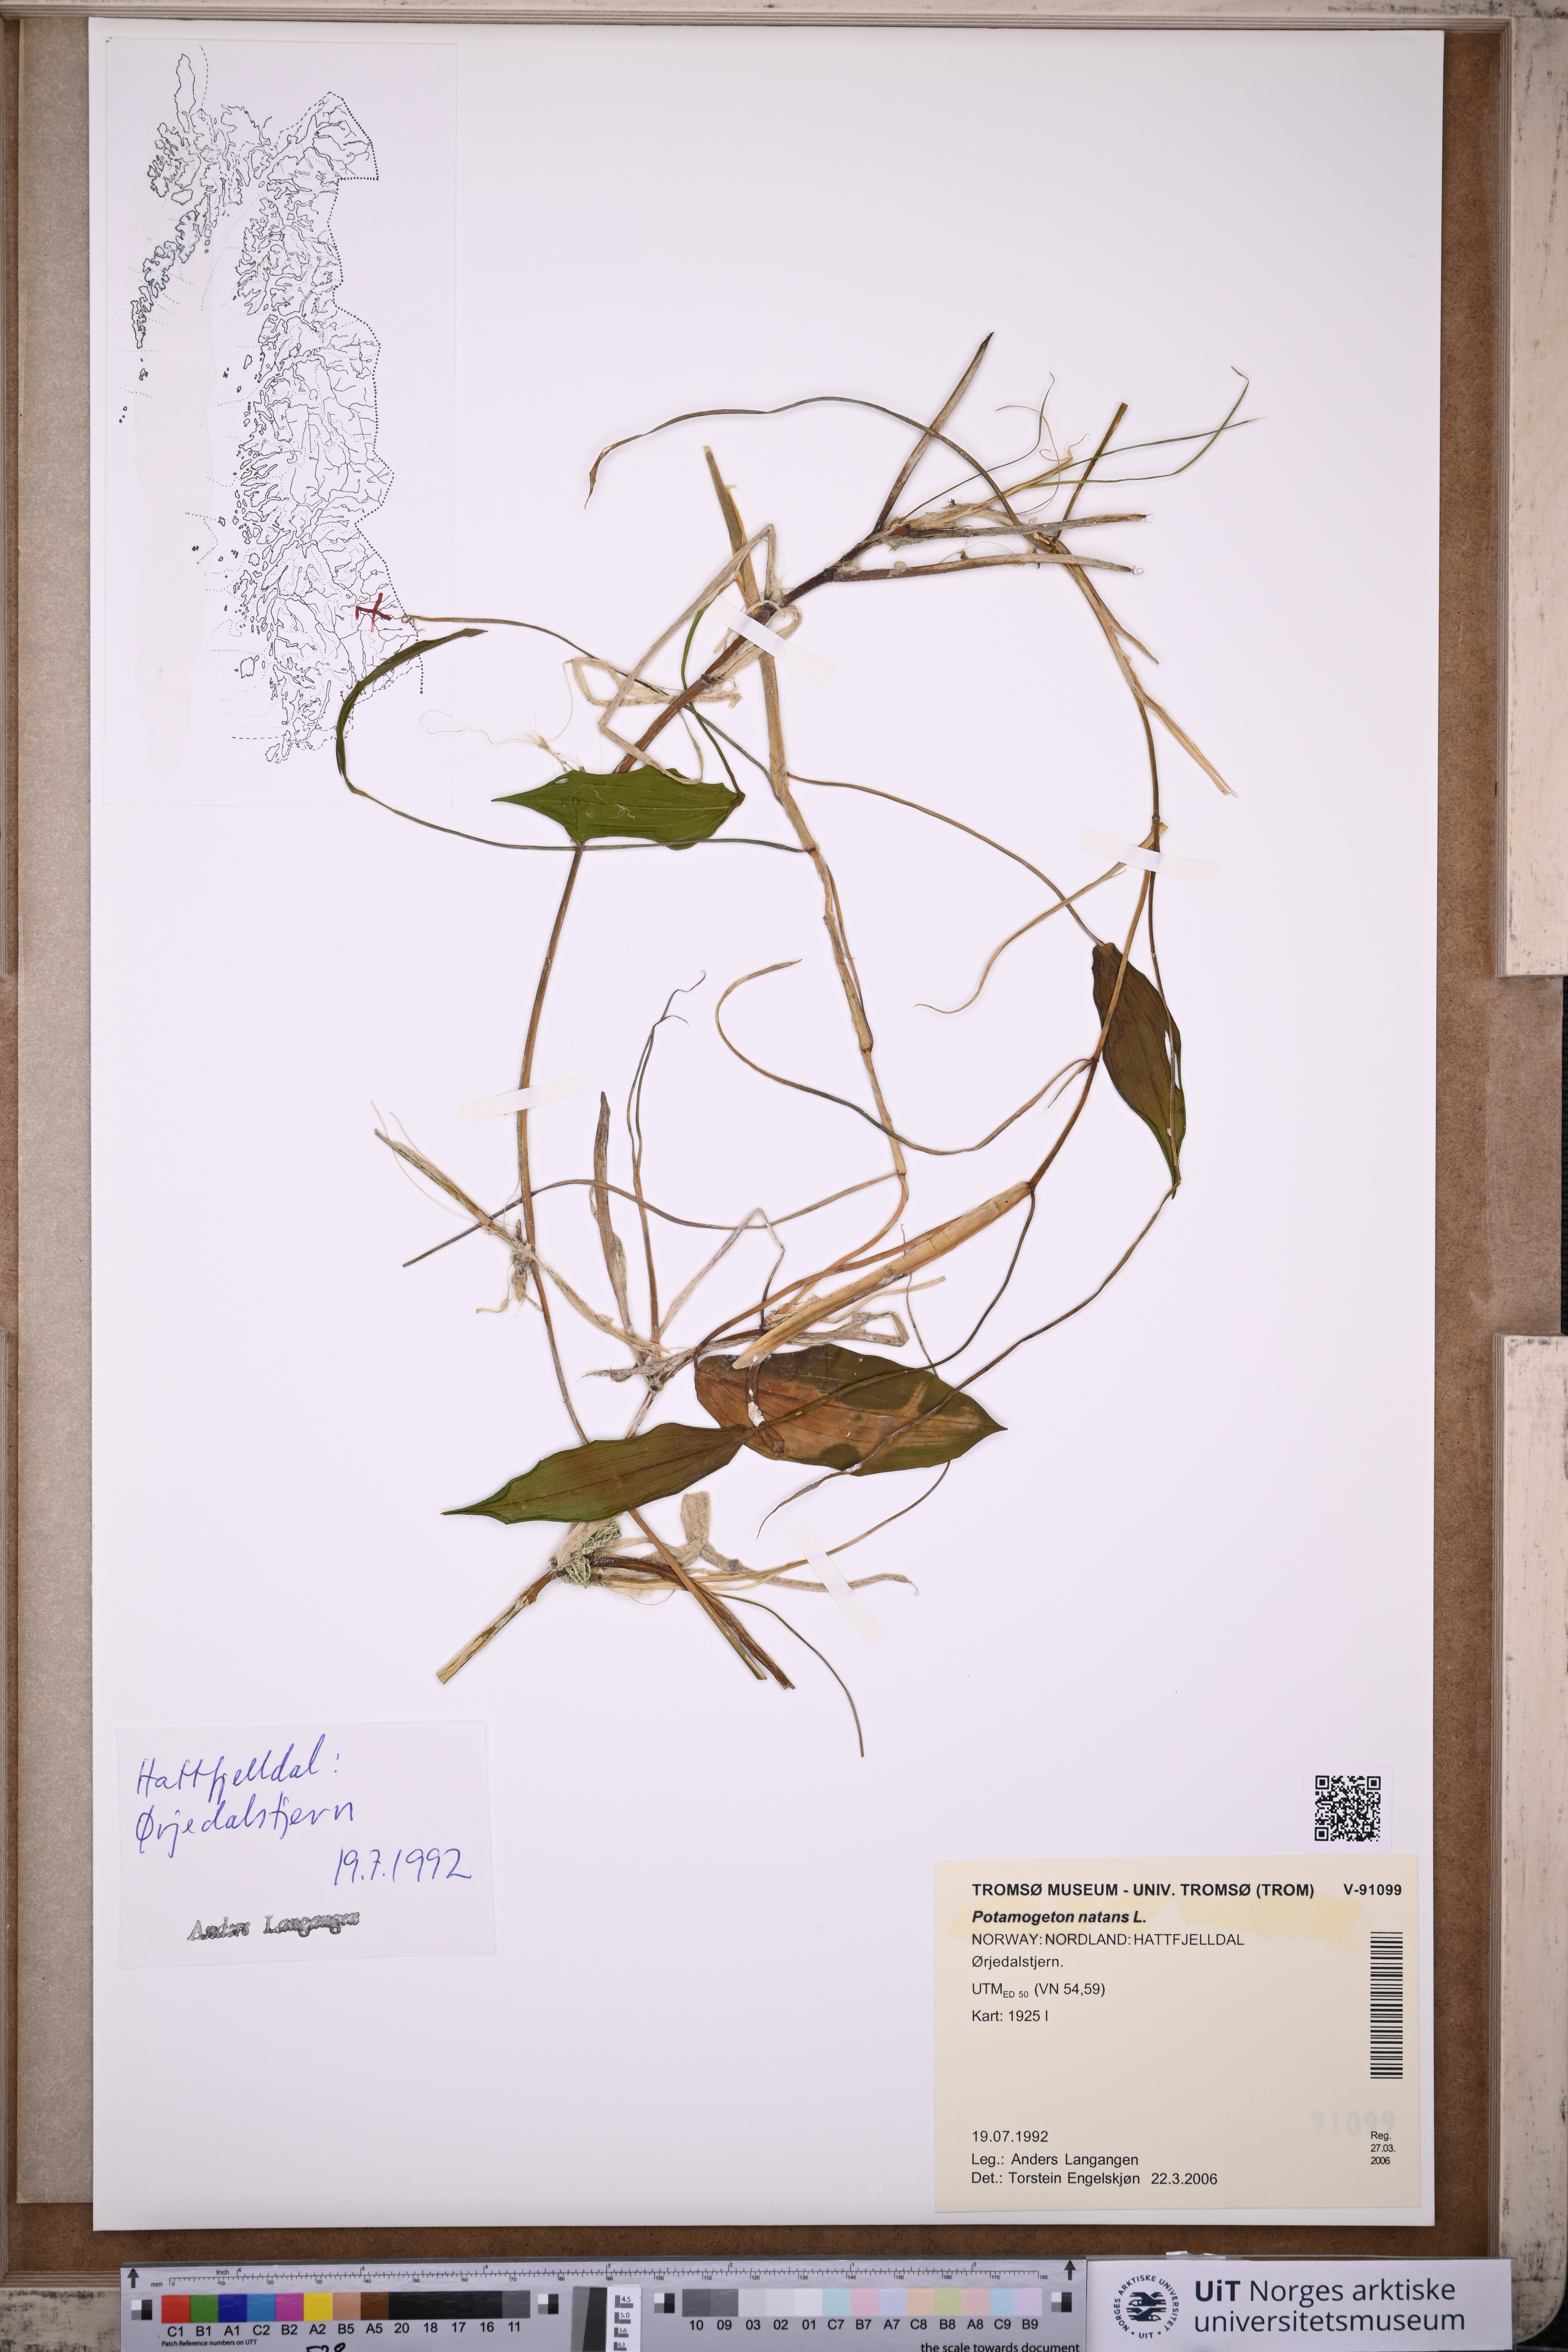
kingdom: Plantae
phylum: Tracheophyta
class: Liliopsida
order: Alismatales
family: Potamogetonaceae
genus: Potamogeton
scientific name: Potamogeton natans
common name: Broad-leaved pondweed
